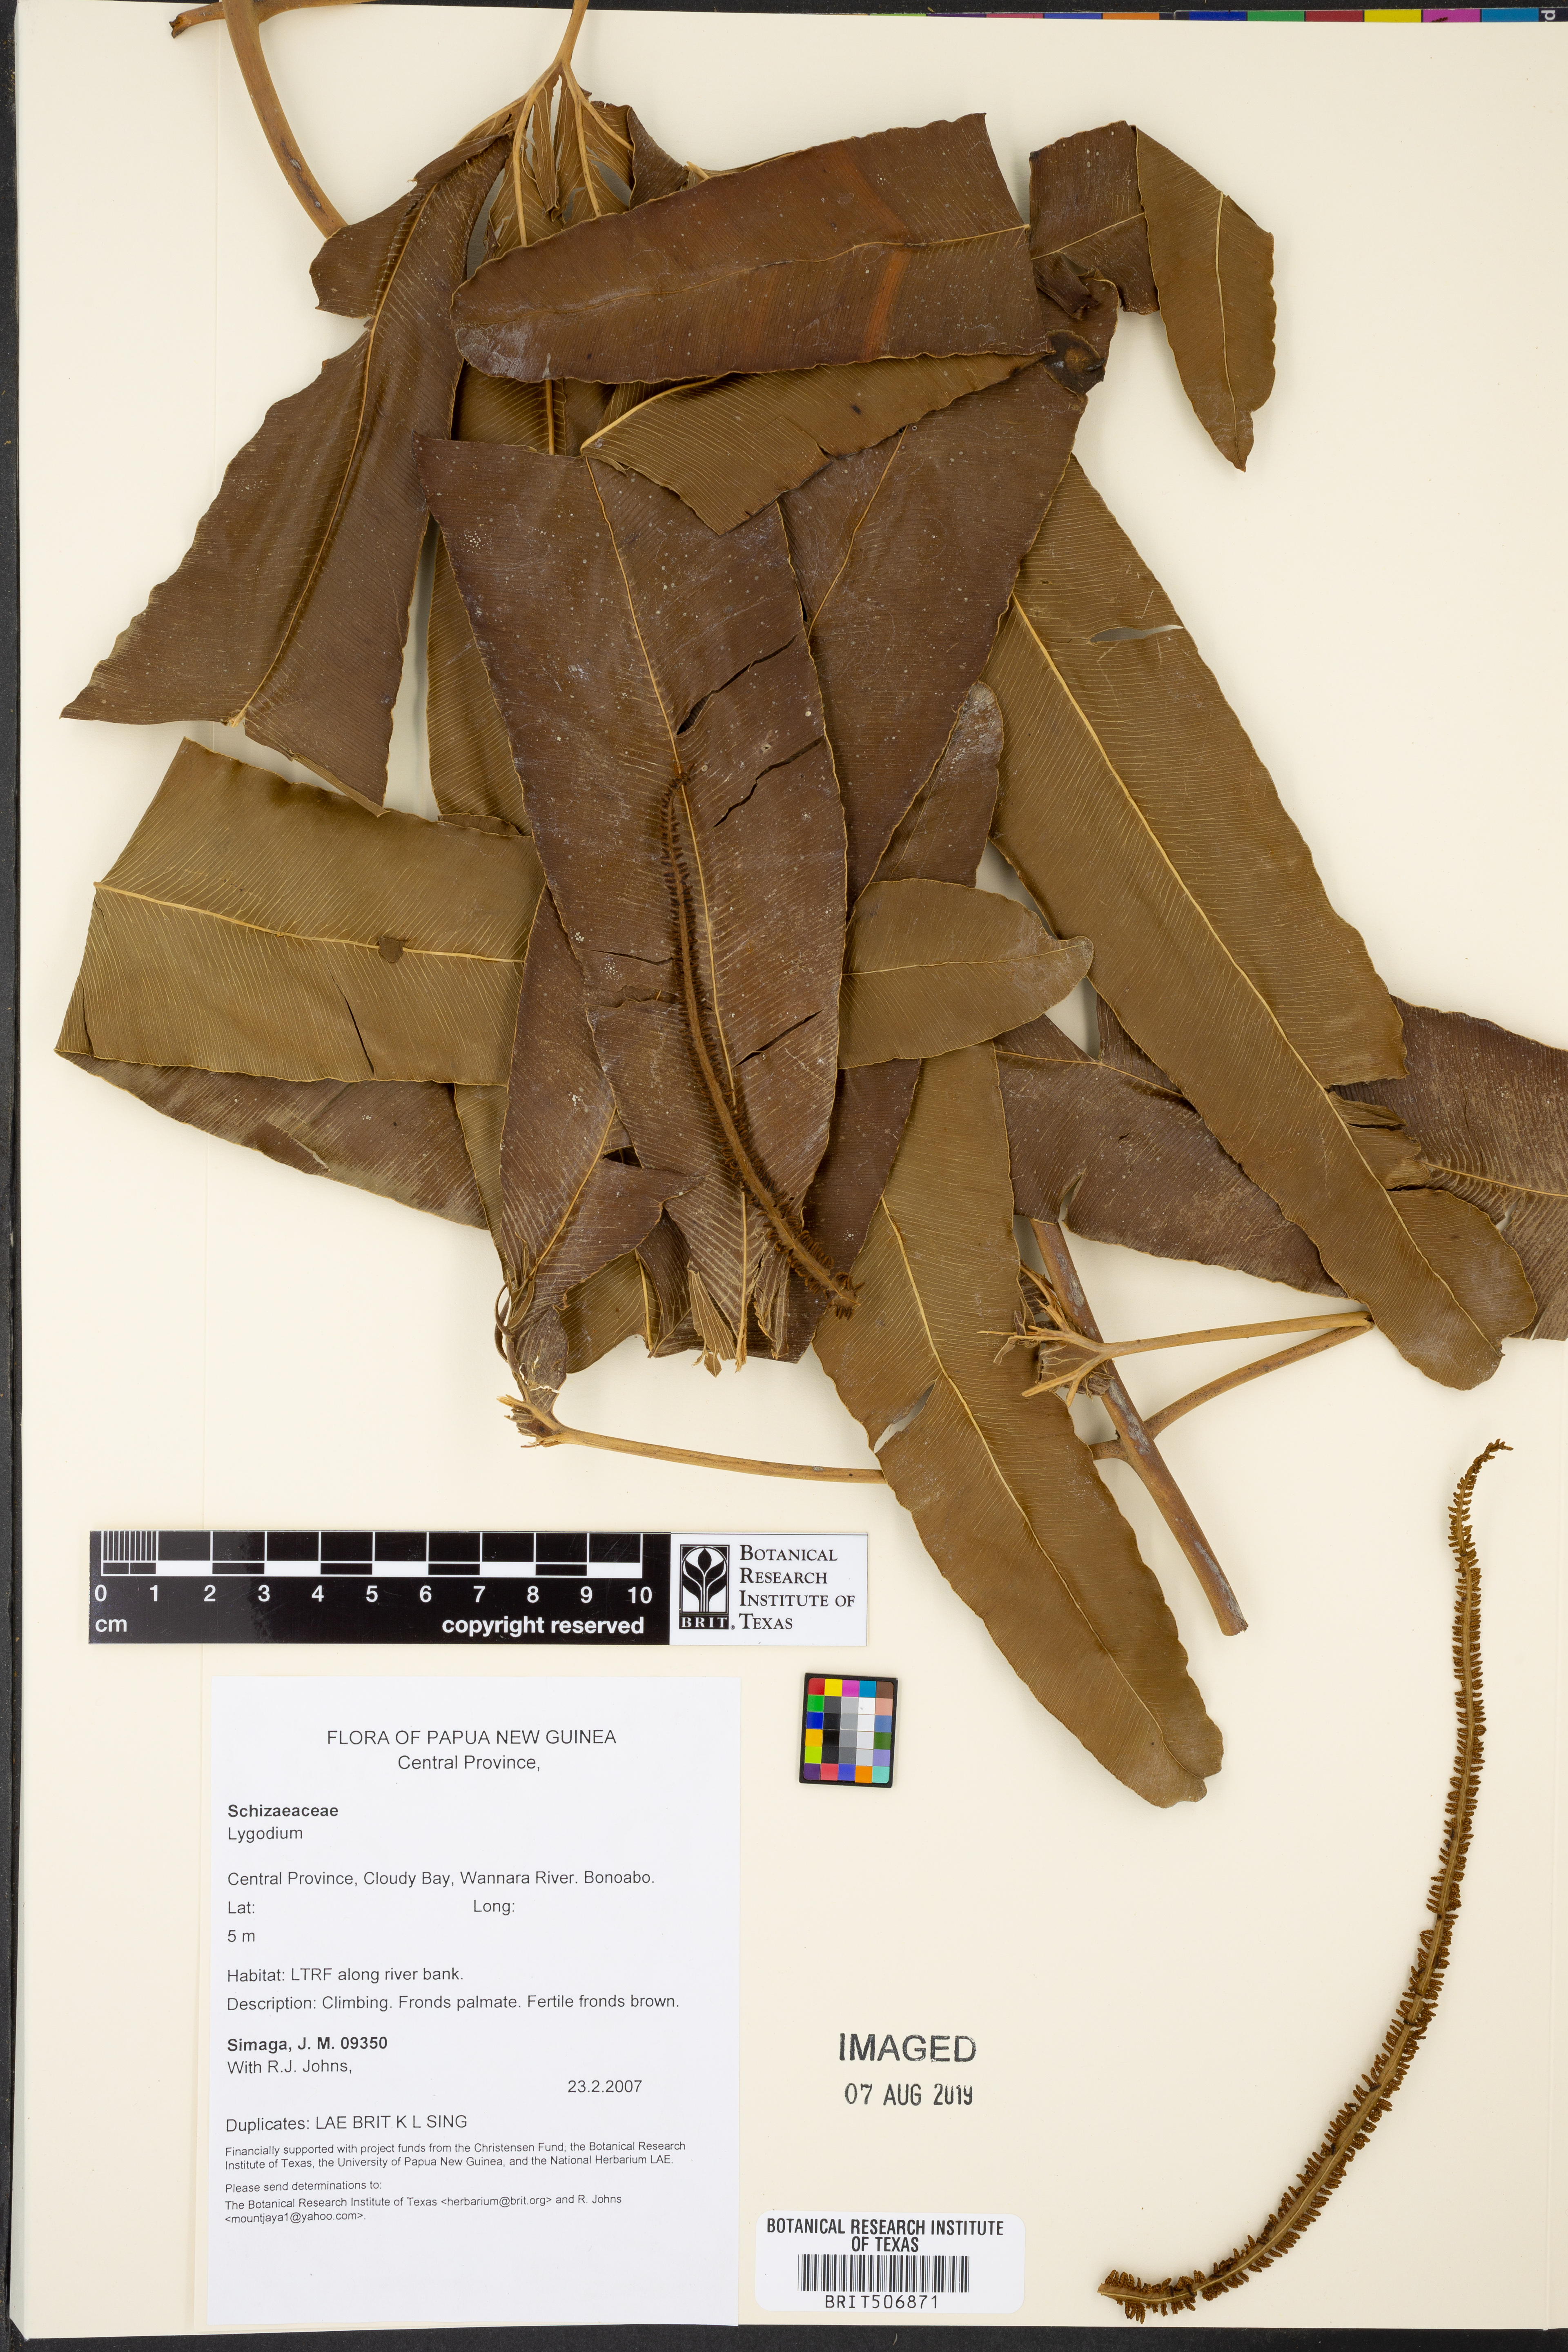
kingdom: Plantae
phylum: Tracheophyta
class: Polypodiopsida
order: Schizaeales
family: Lygodiaceae
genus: Lygodium
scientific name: Lygodium
